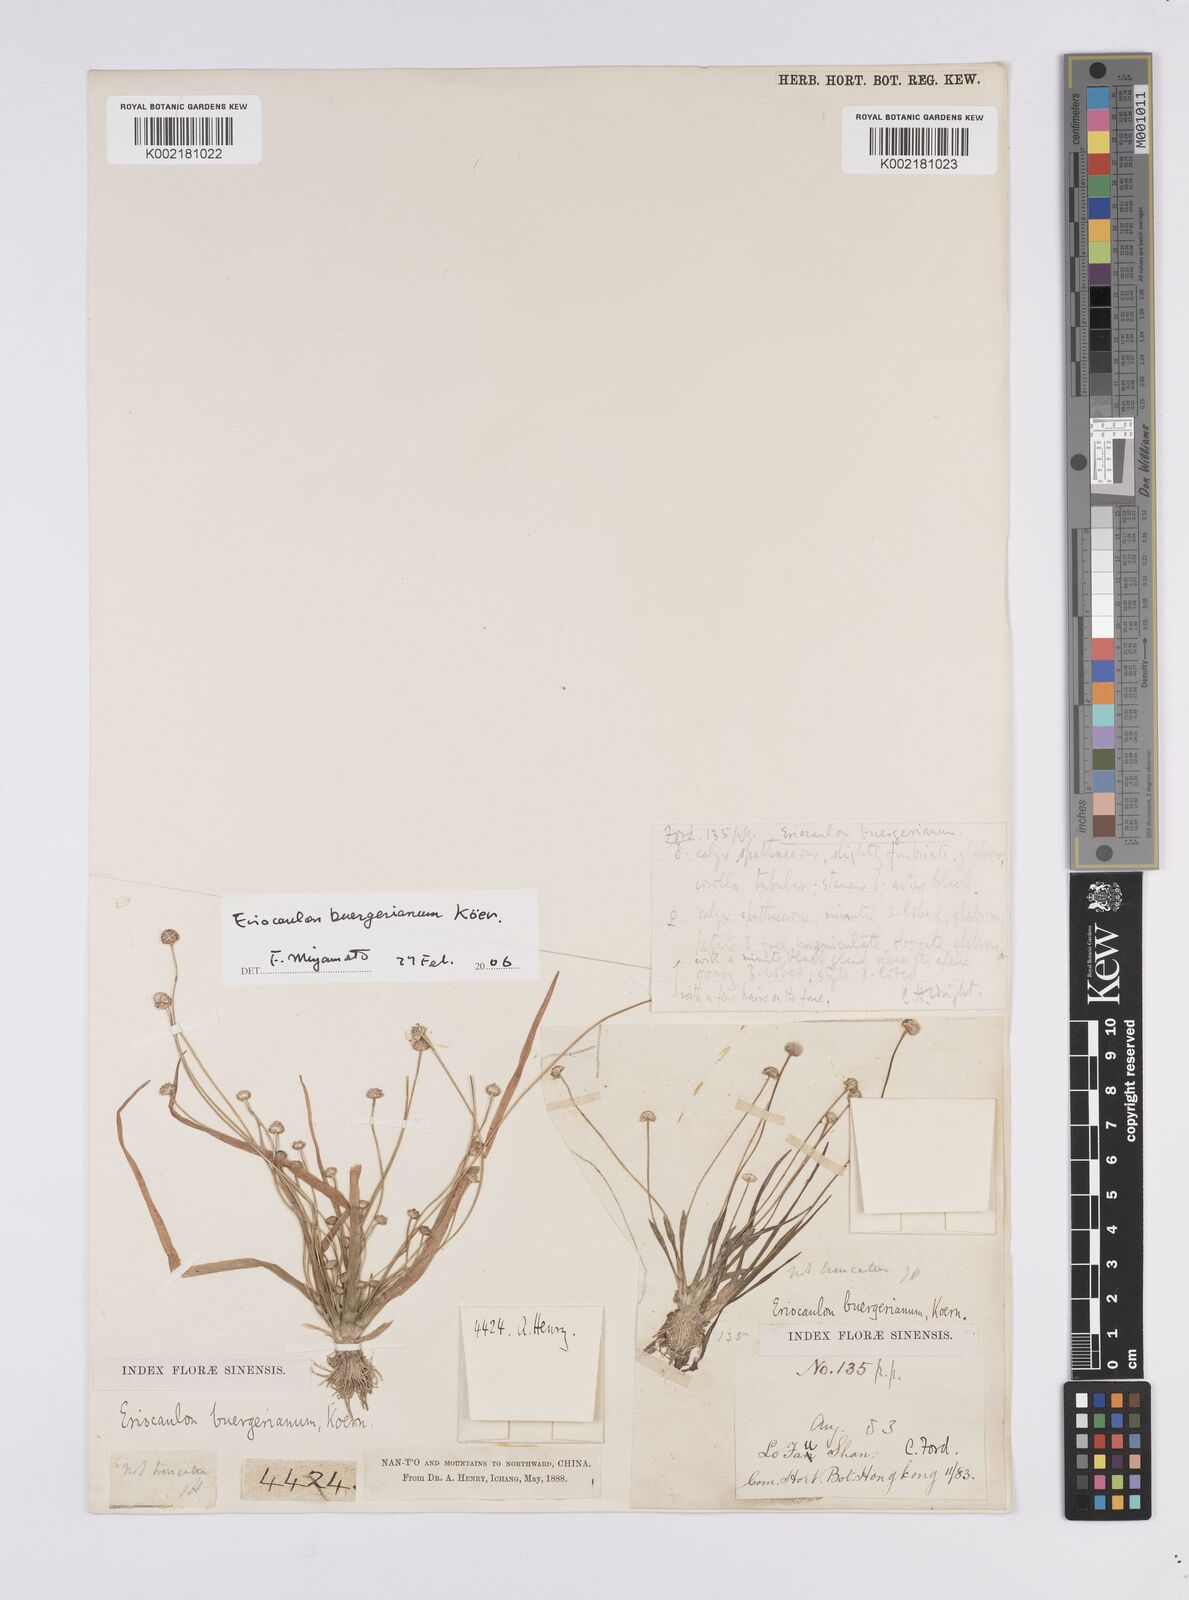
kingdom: Plantae
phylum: Tracheophyta
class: Liliopsida
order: Poales
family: Eriocaulaceae
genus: Eriocaulon
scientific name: Eriocaulon buergerianum
